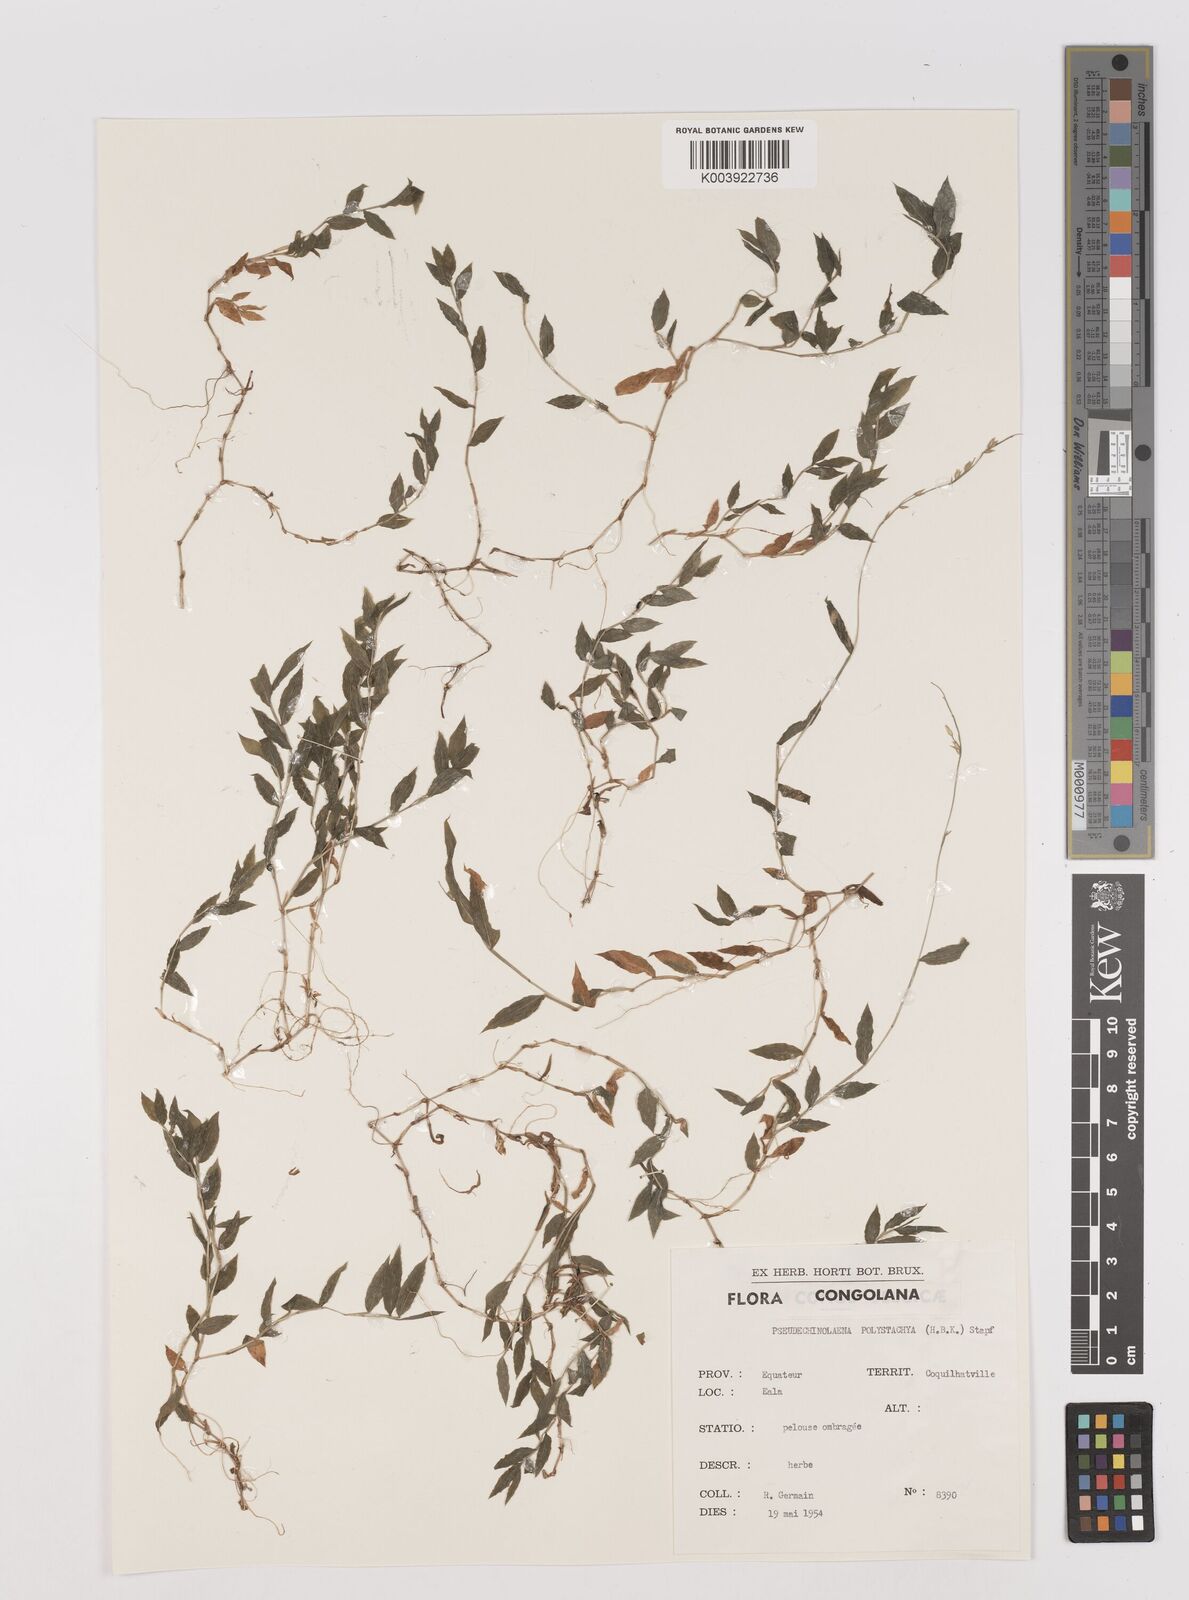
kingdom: Plantae
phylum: Tracheophyta
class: Liliopsida
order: Poales
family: Poaceae
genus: Pseudechinolaena
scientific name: Pseudechinolaena polystachya
